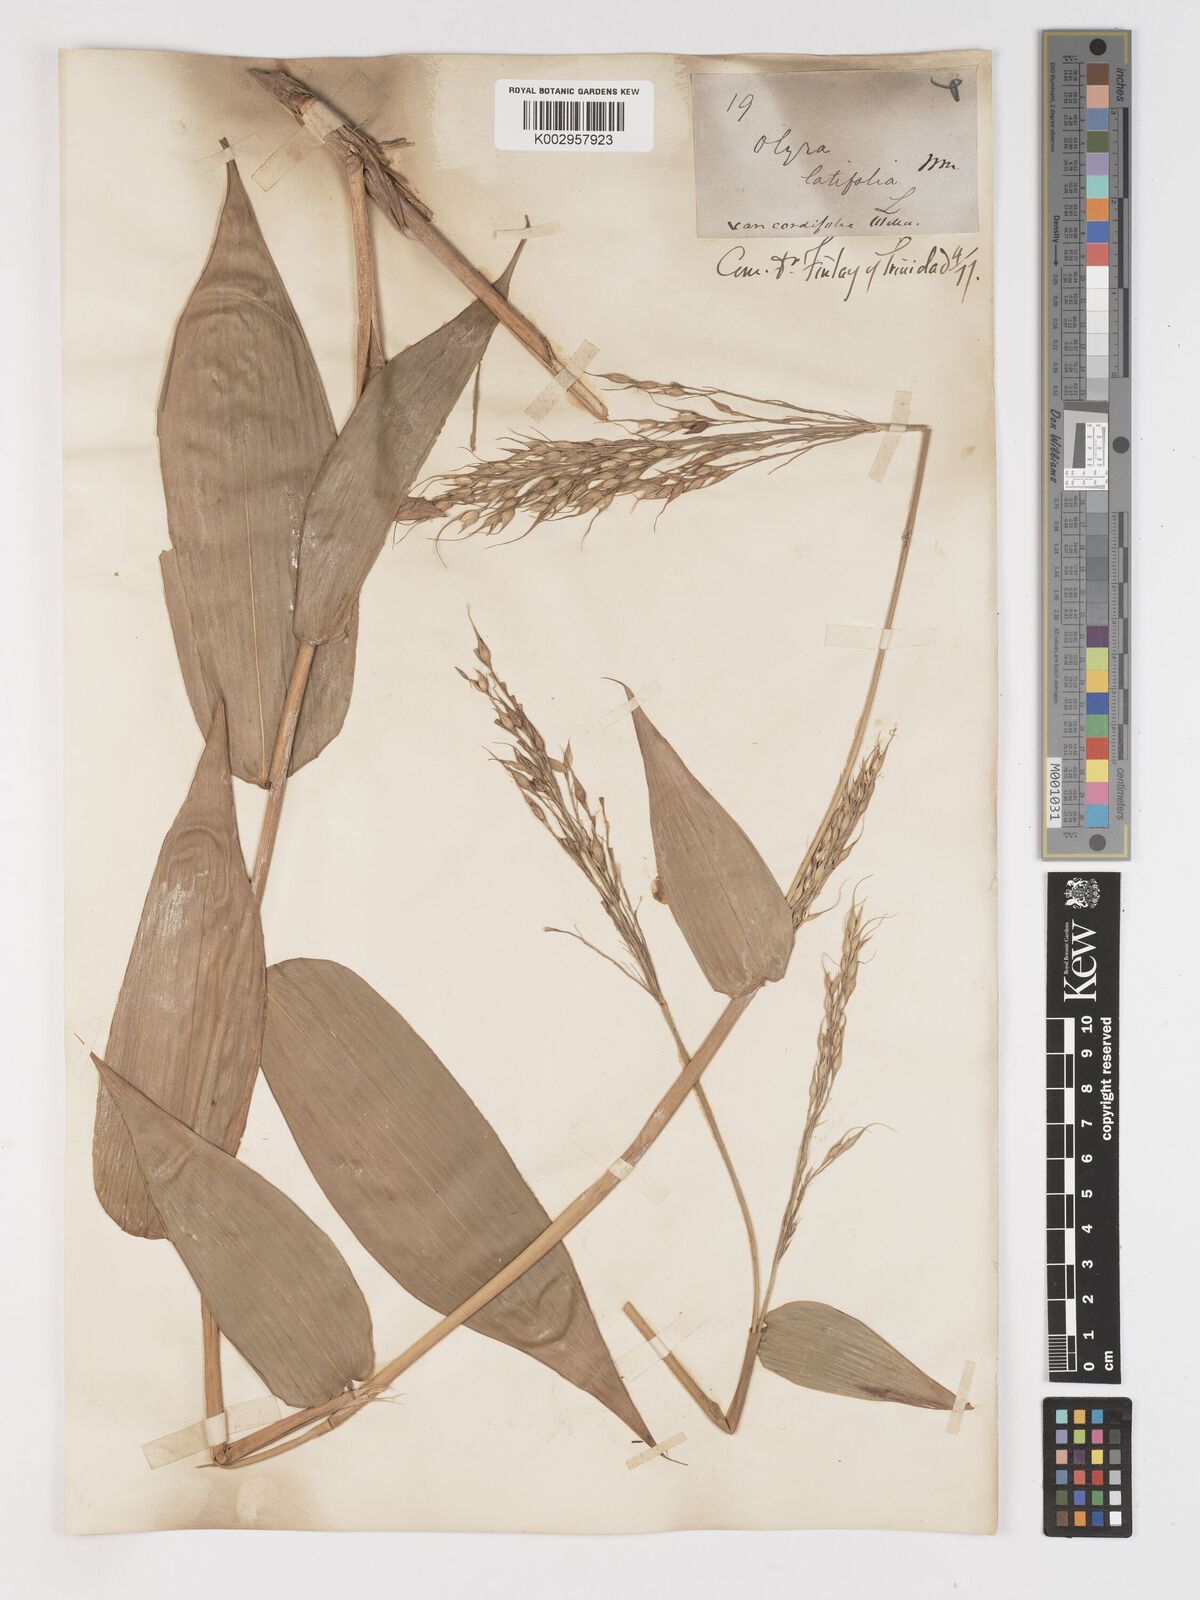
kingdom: Plantae
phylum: Tracheophyta
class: Liliopsida
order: Poales
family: Poaceae
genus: Olyra
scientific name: Olyra latifolia
